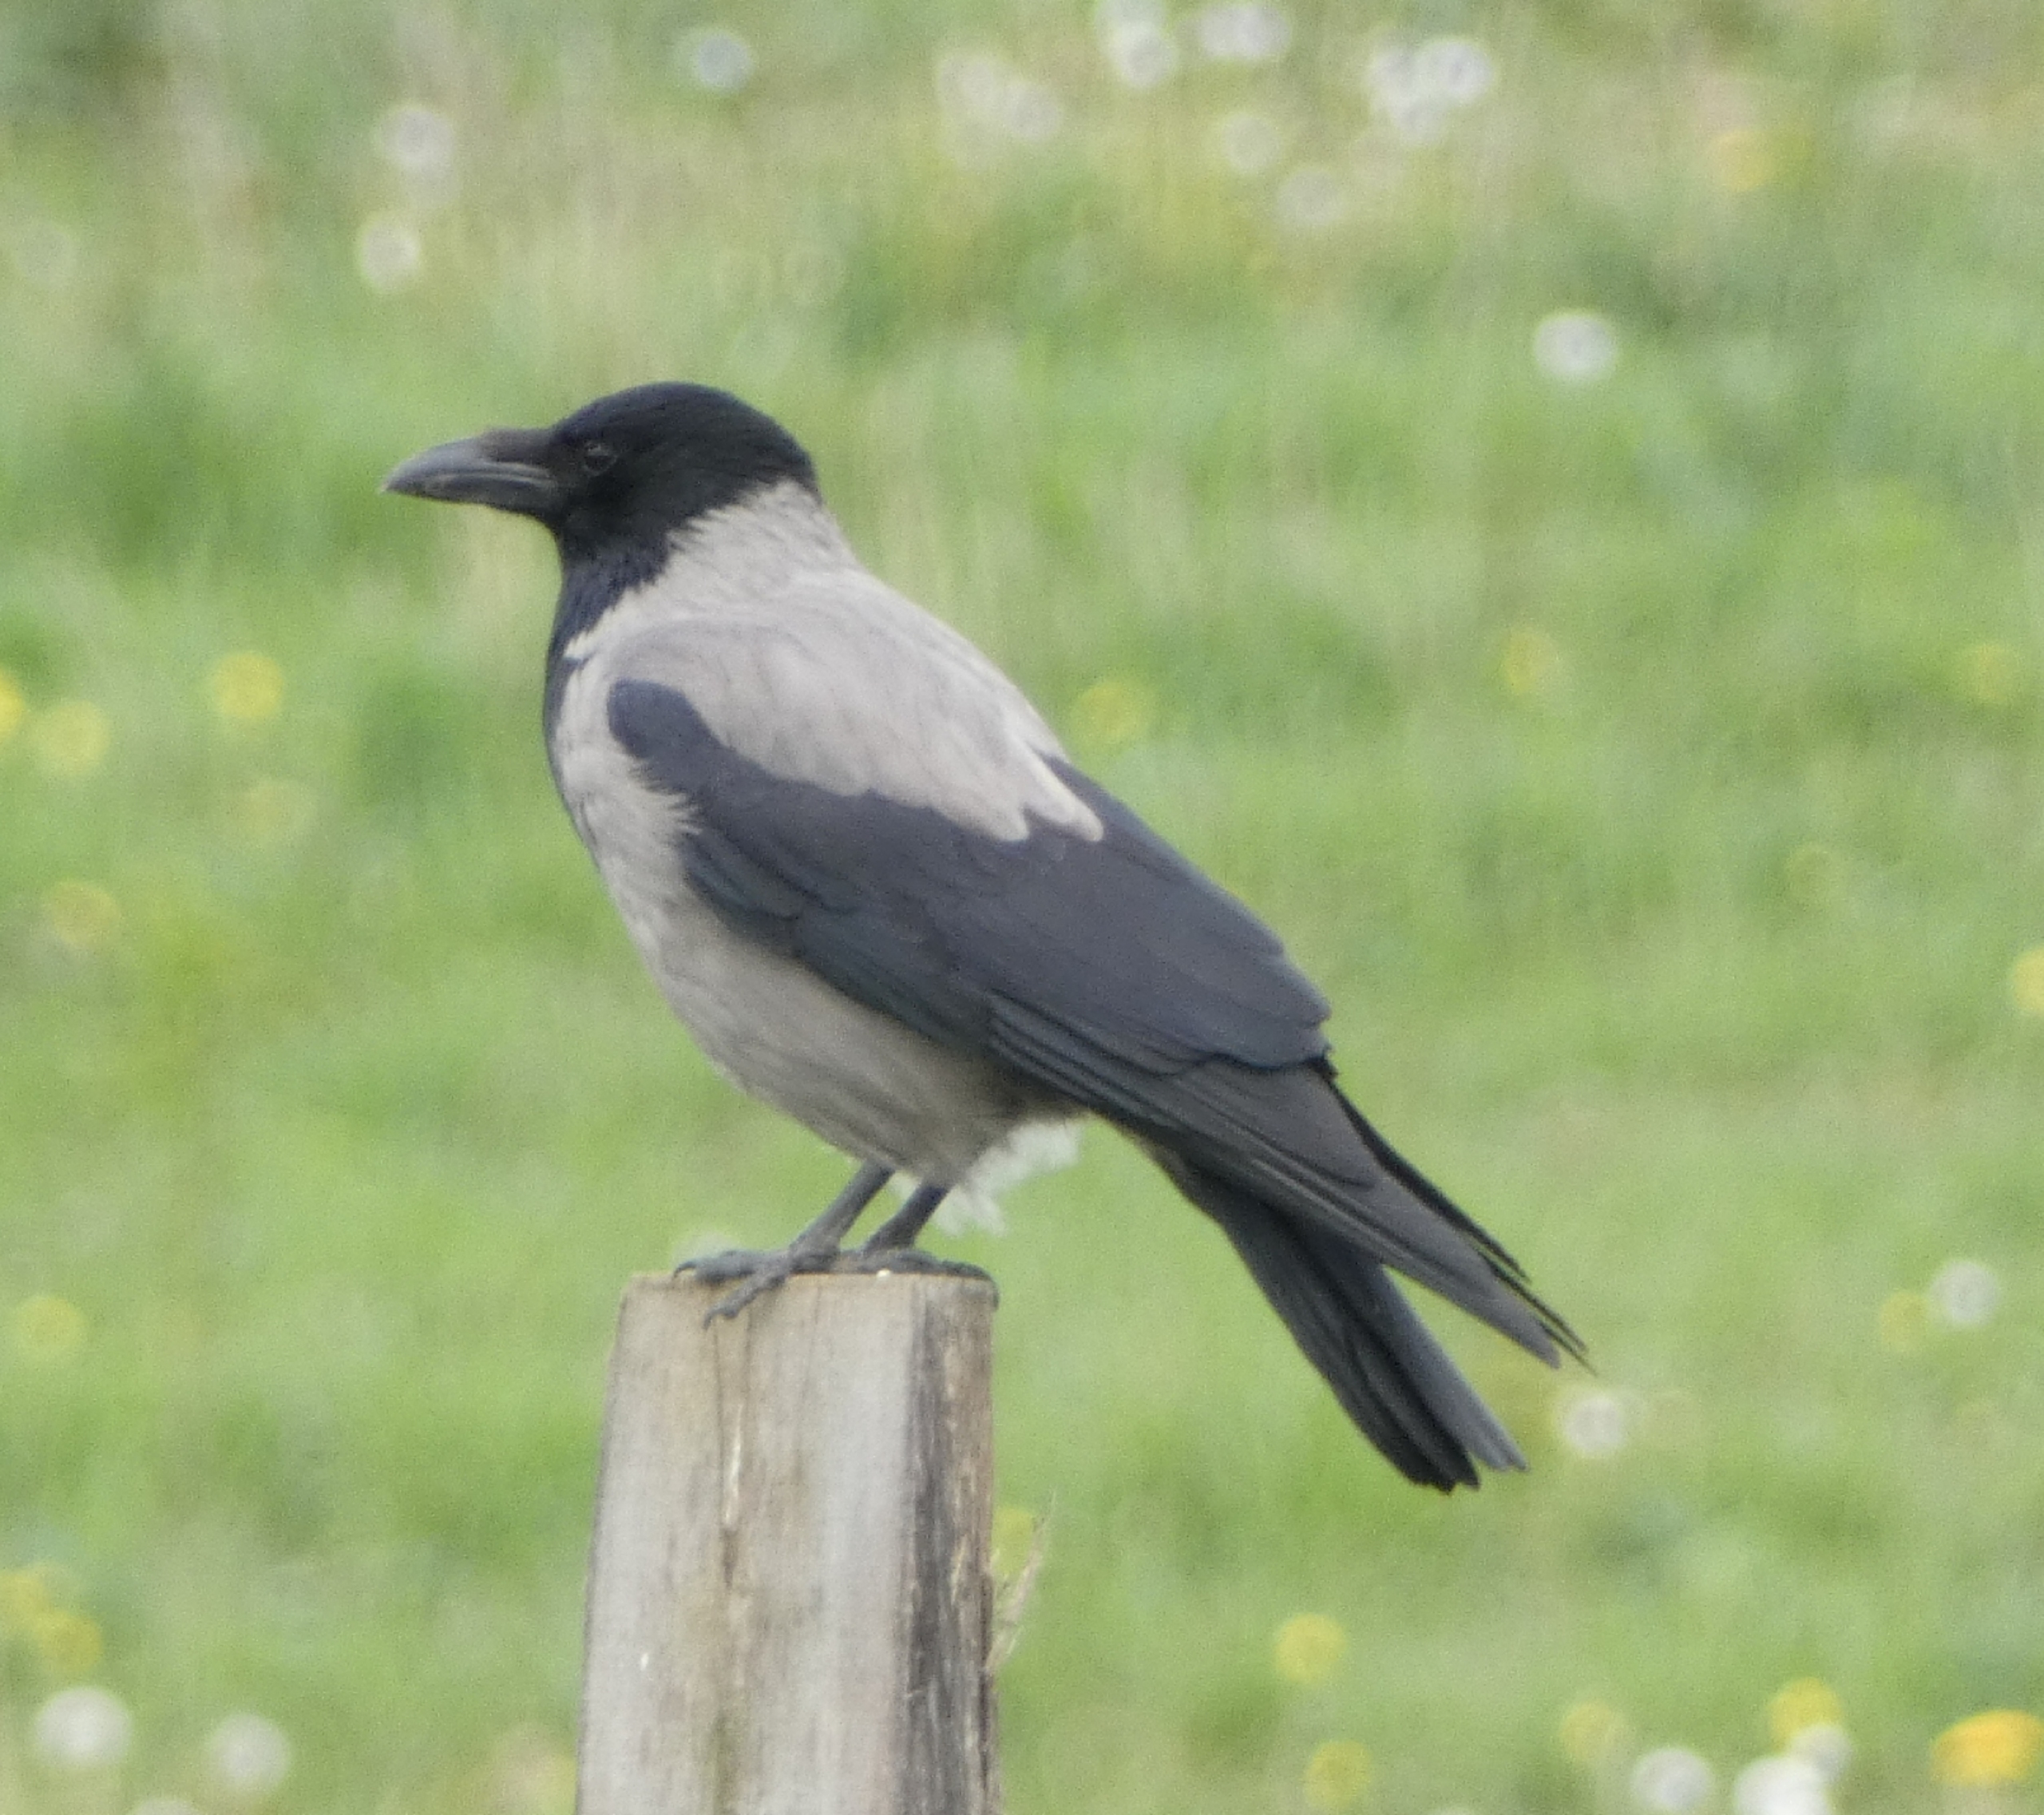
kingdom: Animalia
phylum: Chordata
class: Aves
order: Passeriformes
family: Corvidae
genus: Corvus
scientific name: Corvus cornix
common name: Gråkrage
